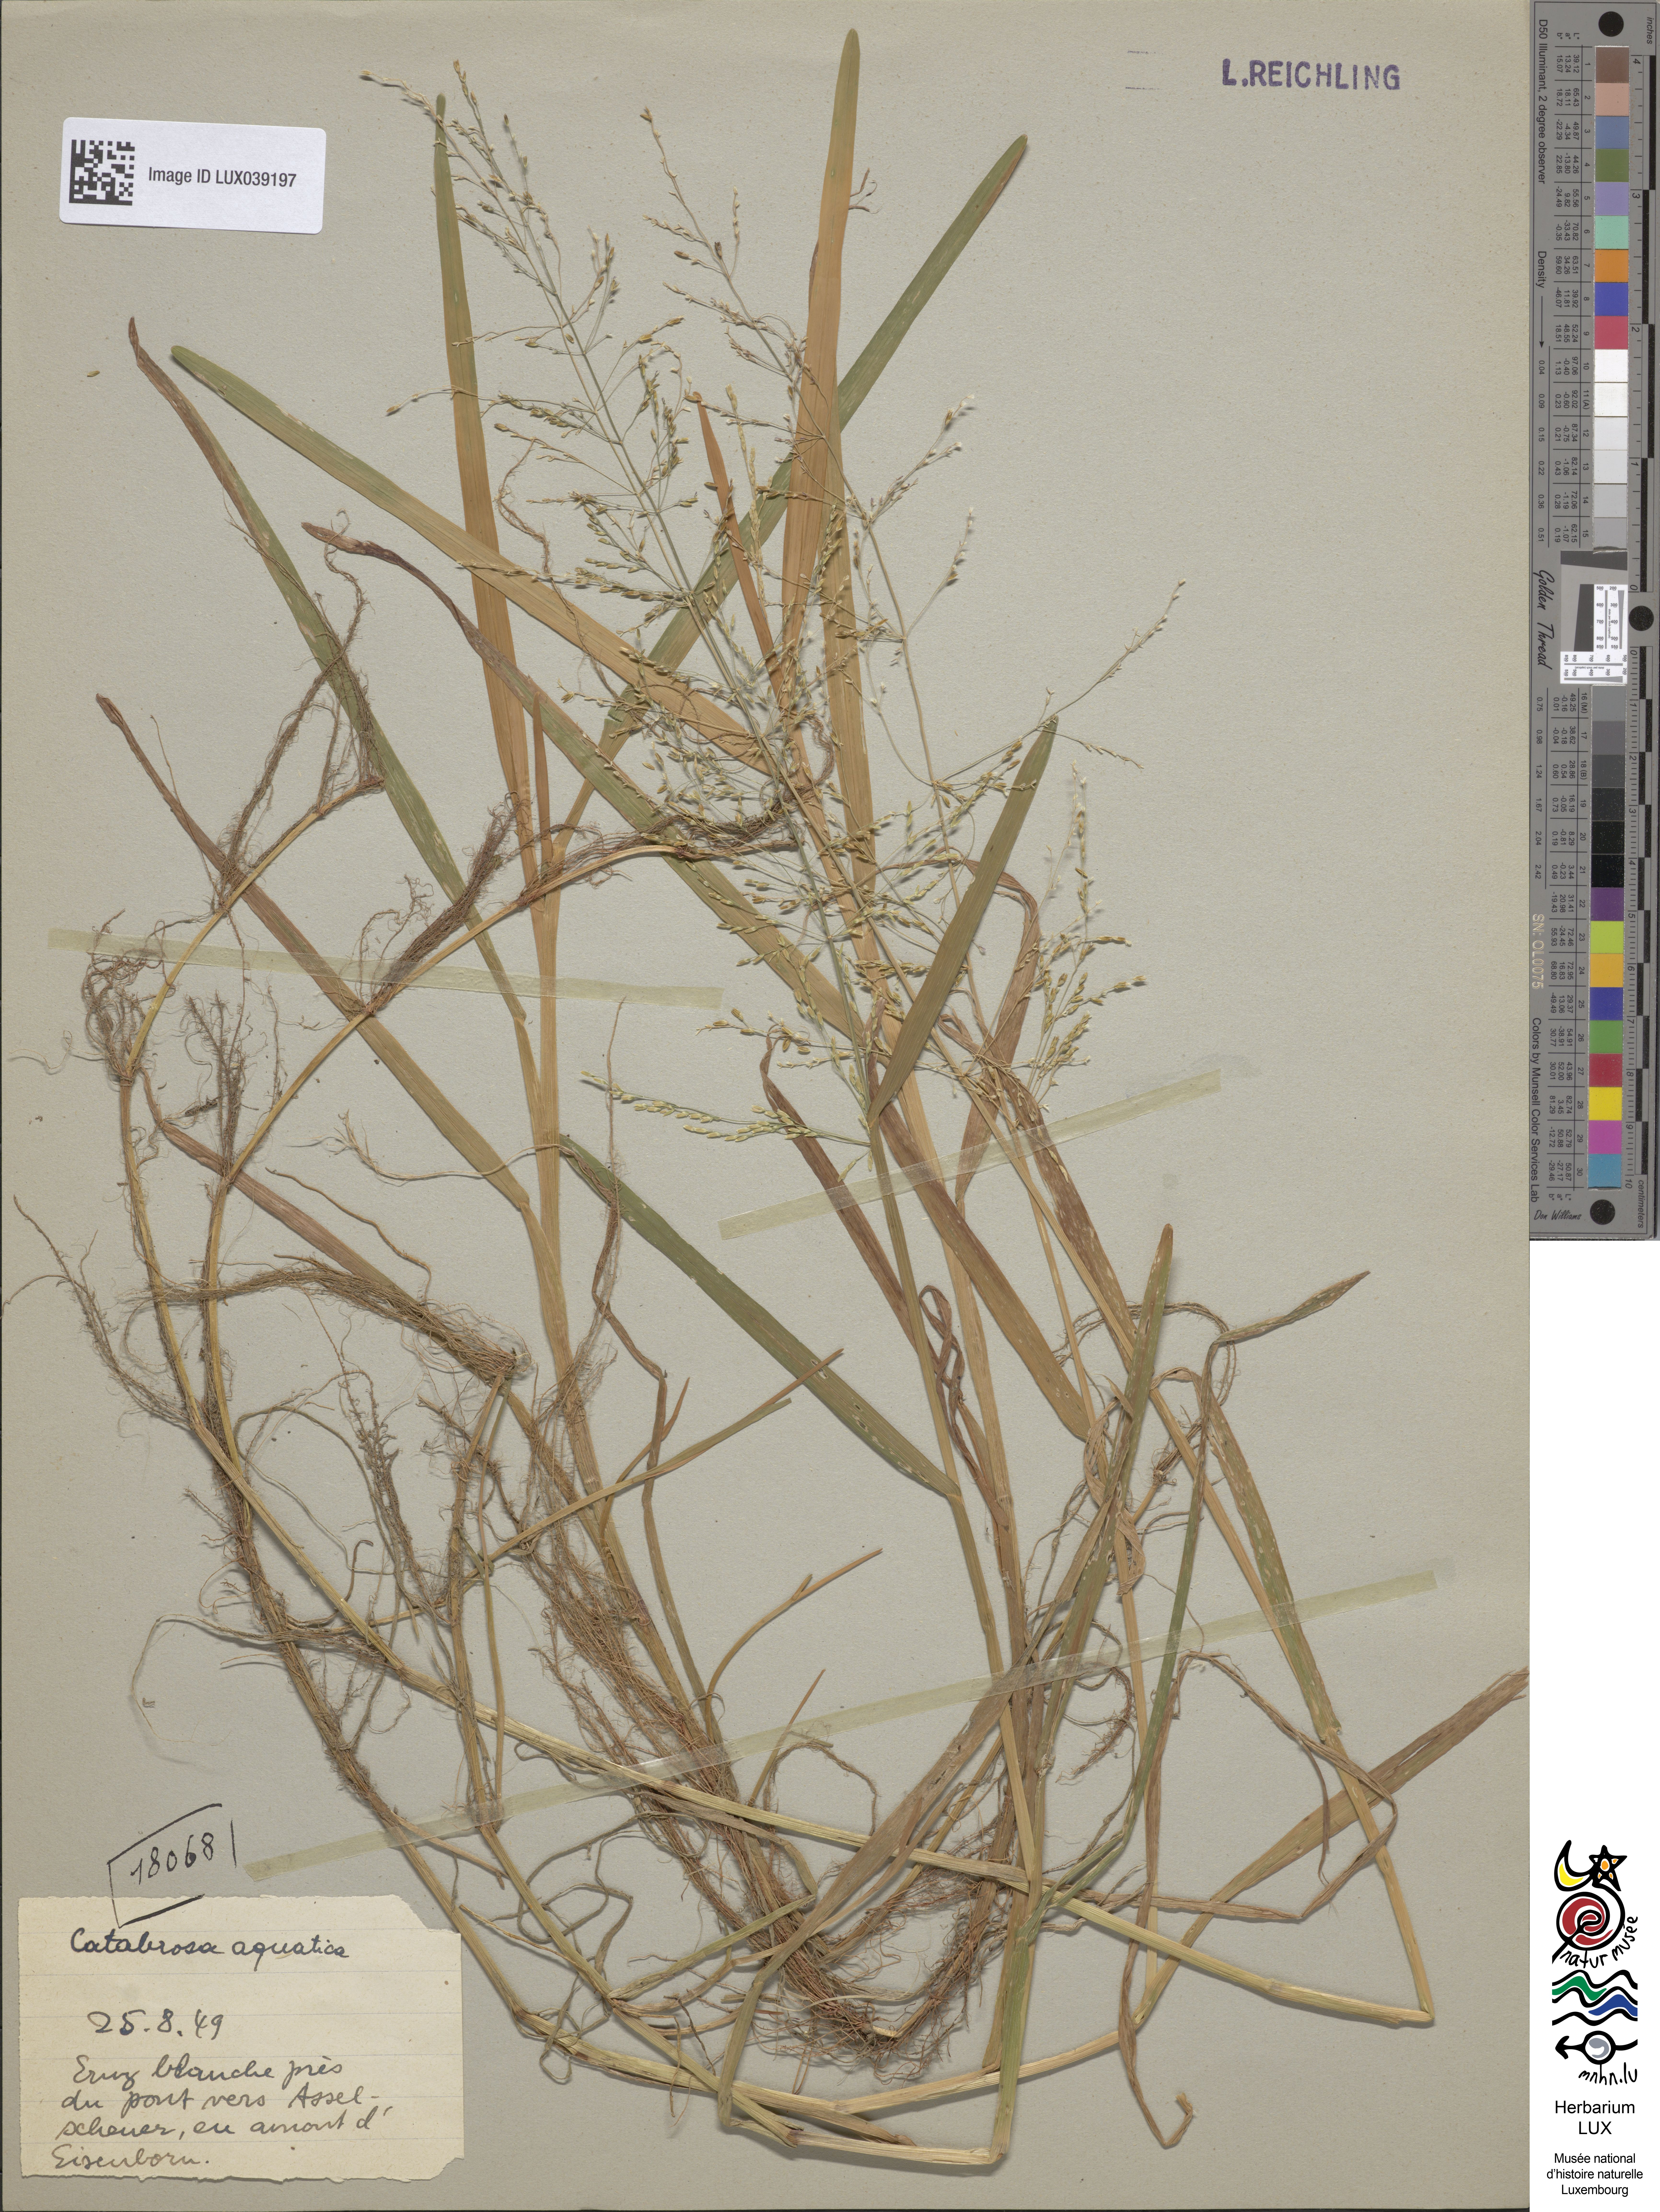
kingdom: Plantae
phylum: Tracheophyta
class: Liliopsida
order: Poales
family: Poaceae
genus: Catabrosa
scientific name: Catabrosa aquatica
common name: Whorl-grass
